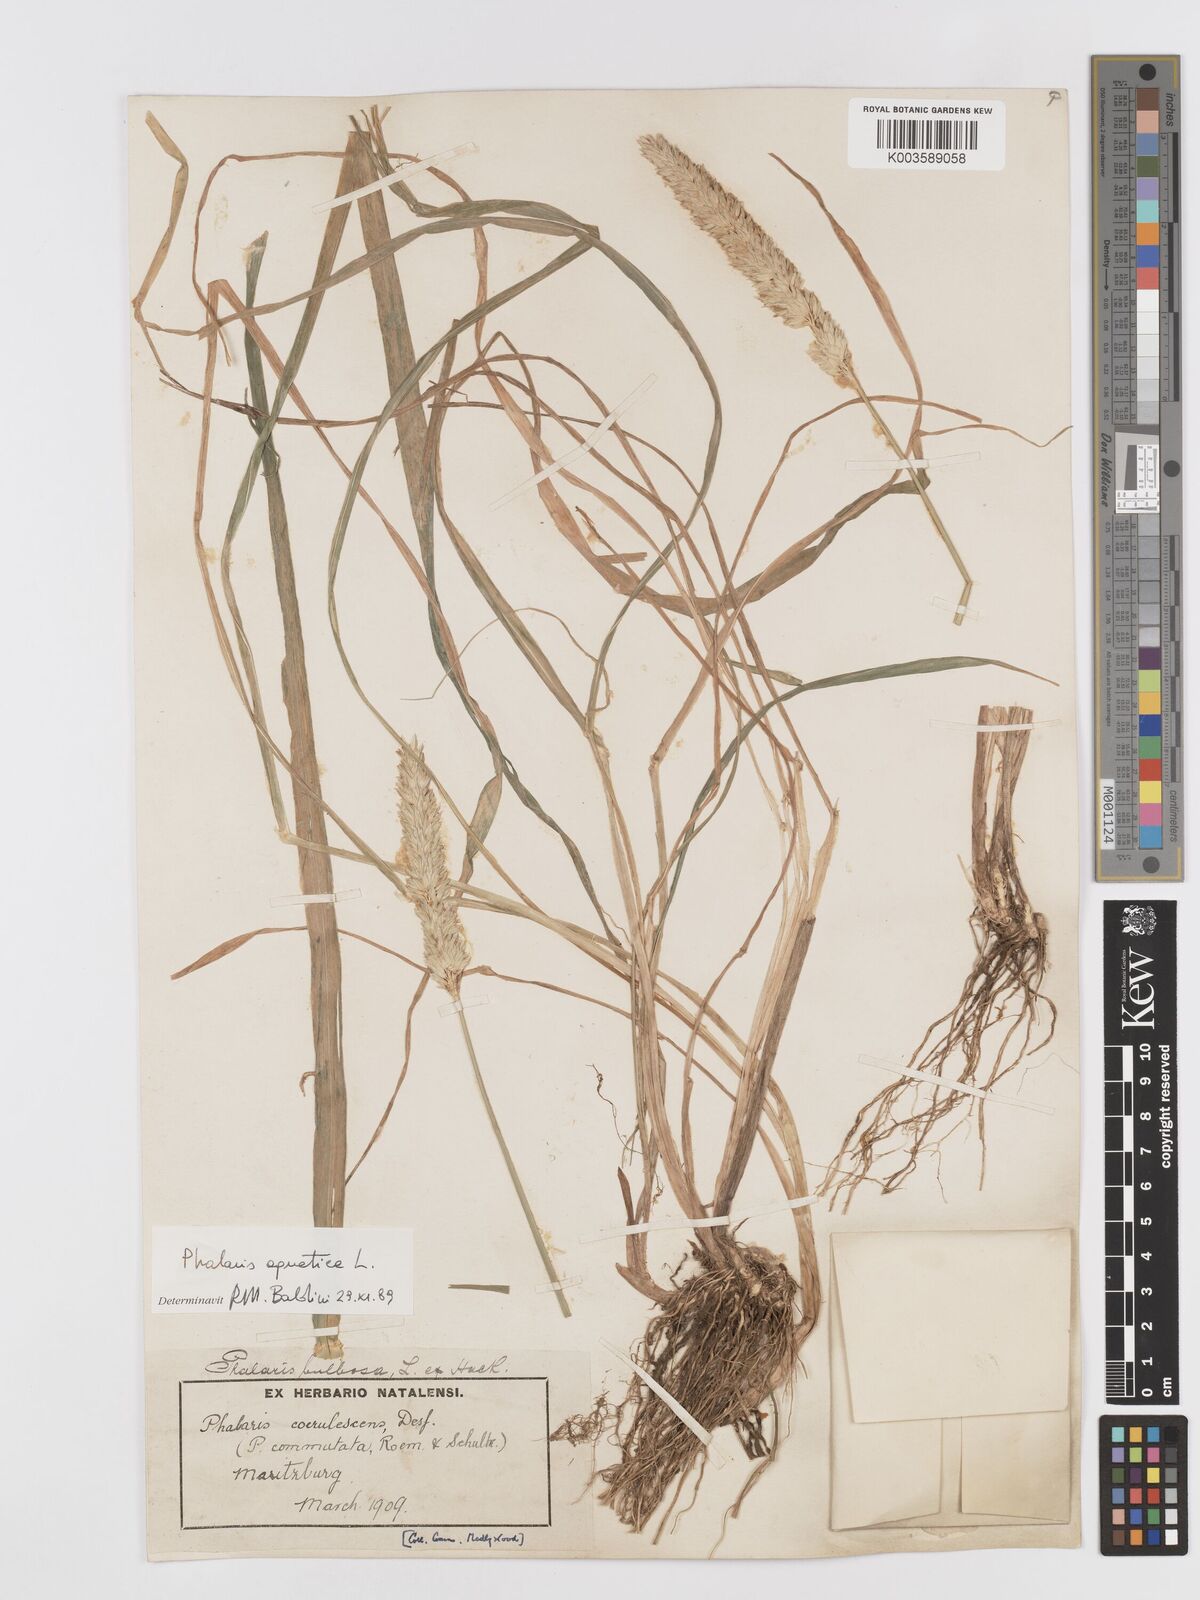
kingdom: Plantae
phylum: Tracheophyta
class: Liliopsida
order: Poales
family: Poaceae
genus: Phalaris
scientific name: Phalaris aquatica
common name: Bulbous canary-grass
